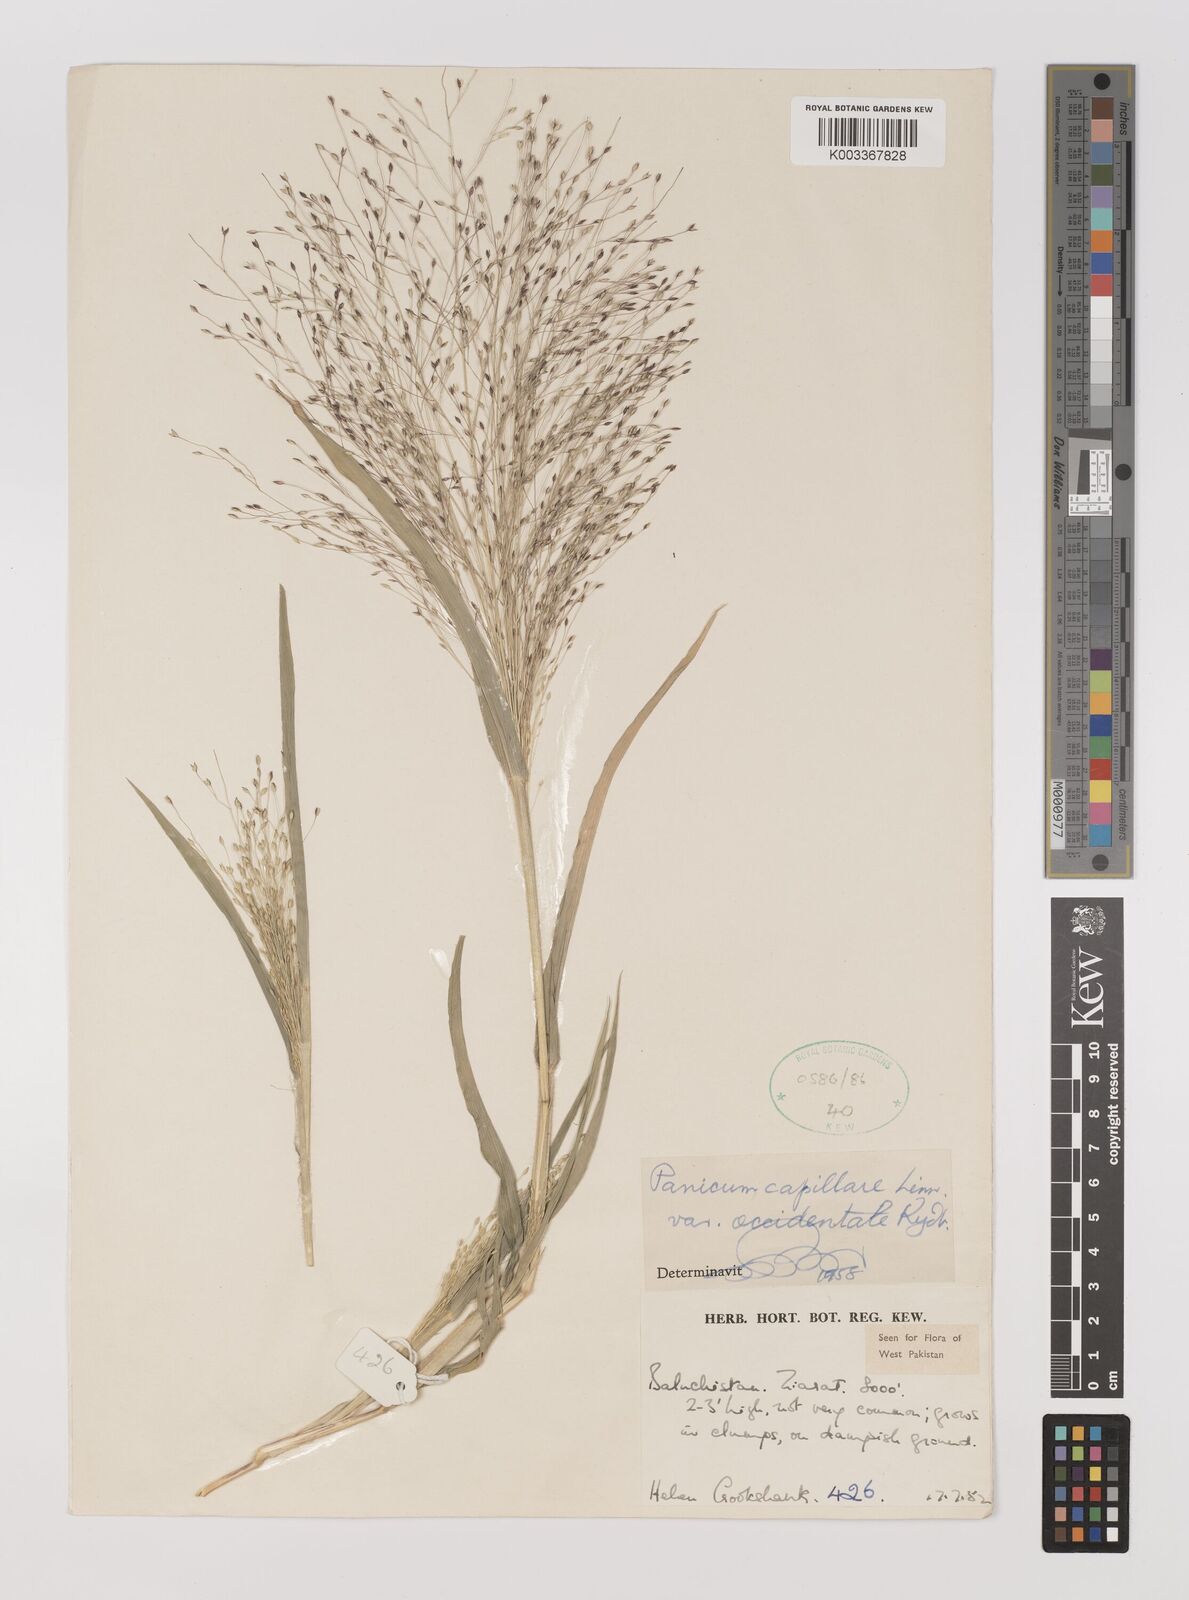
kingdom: Plantae
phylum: Tracheophyta
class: Liliopsida
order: Poales
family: Poaceae
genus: Panicum
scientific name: Panicum capillare
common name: Witch-grass
